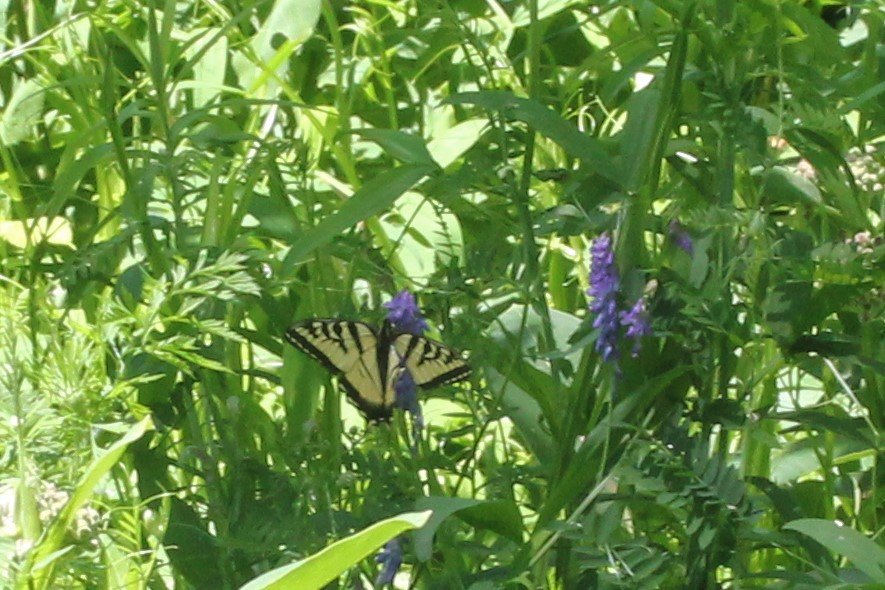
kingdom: Animalia
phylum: Arthropoda
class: Insecta
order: Lepidoptera
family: Papilionidae
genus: Pterourus
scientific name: Pterourus canadensis
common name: Canadian Tiger Swallowtail
